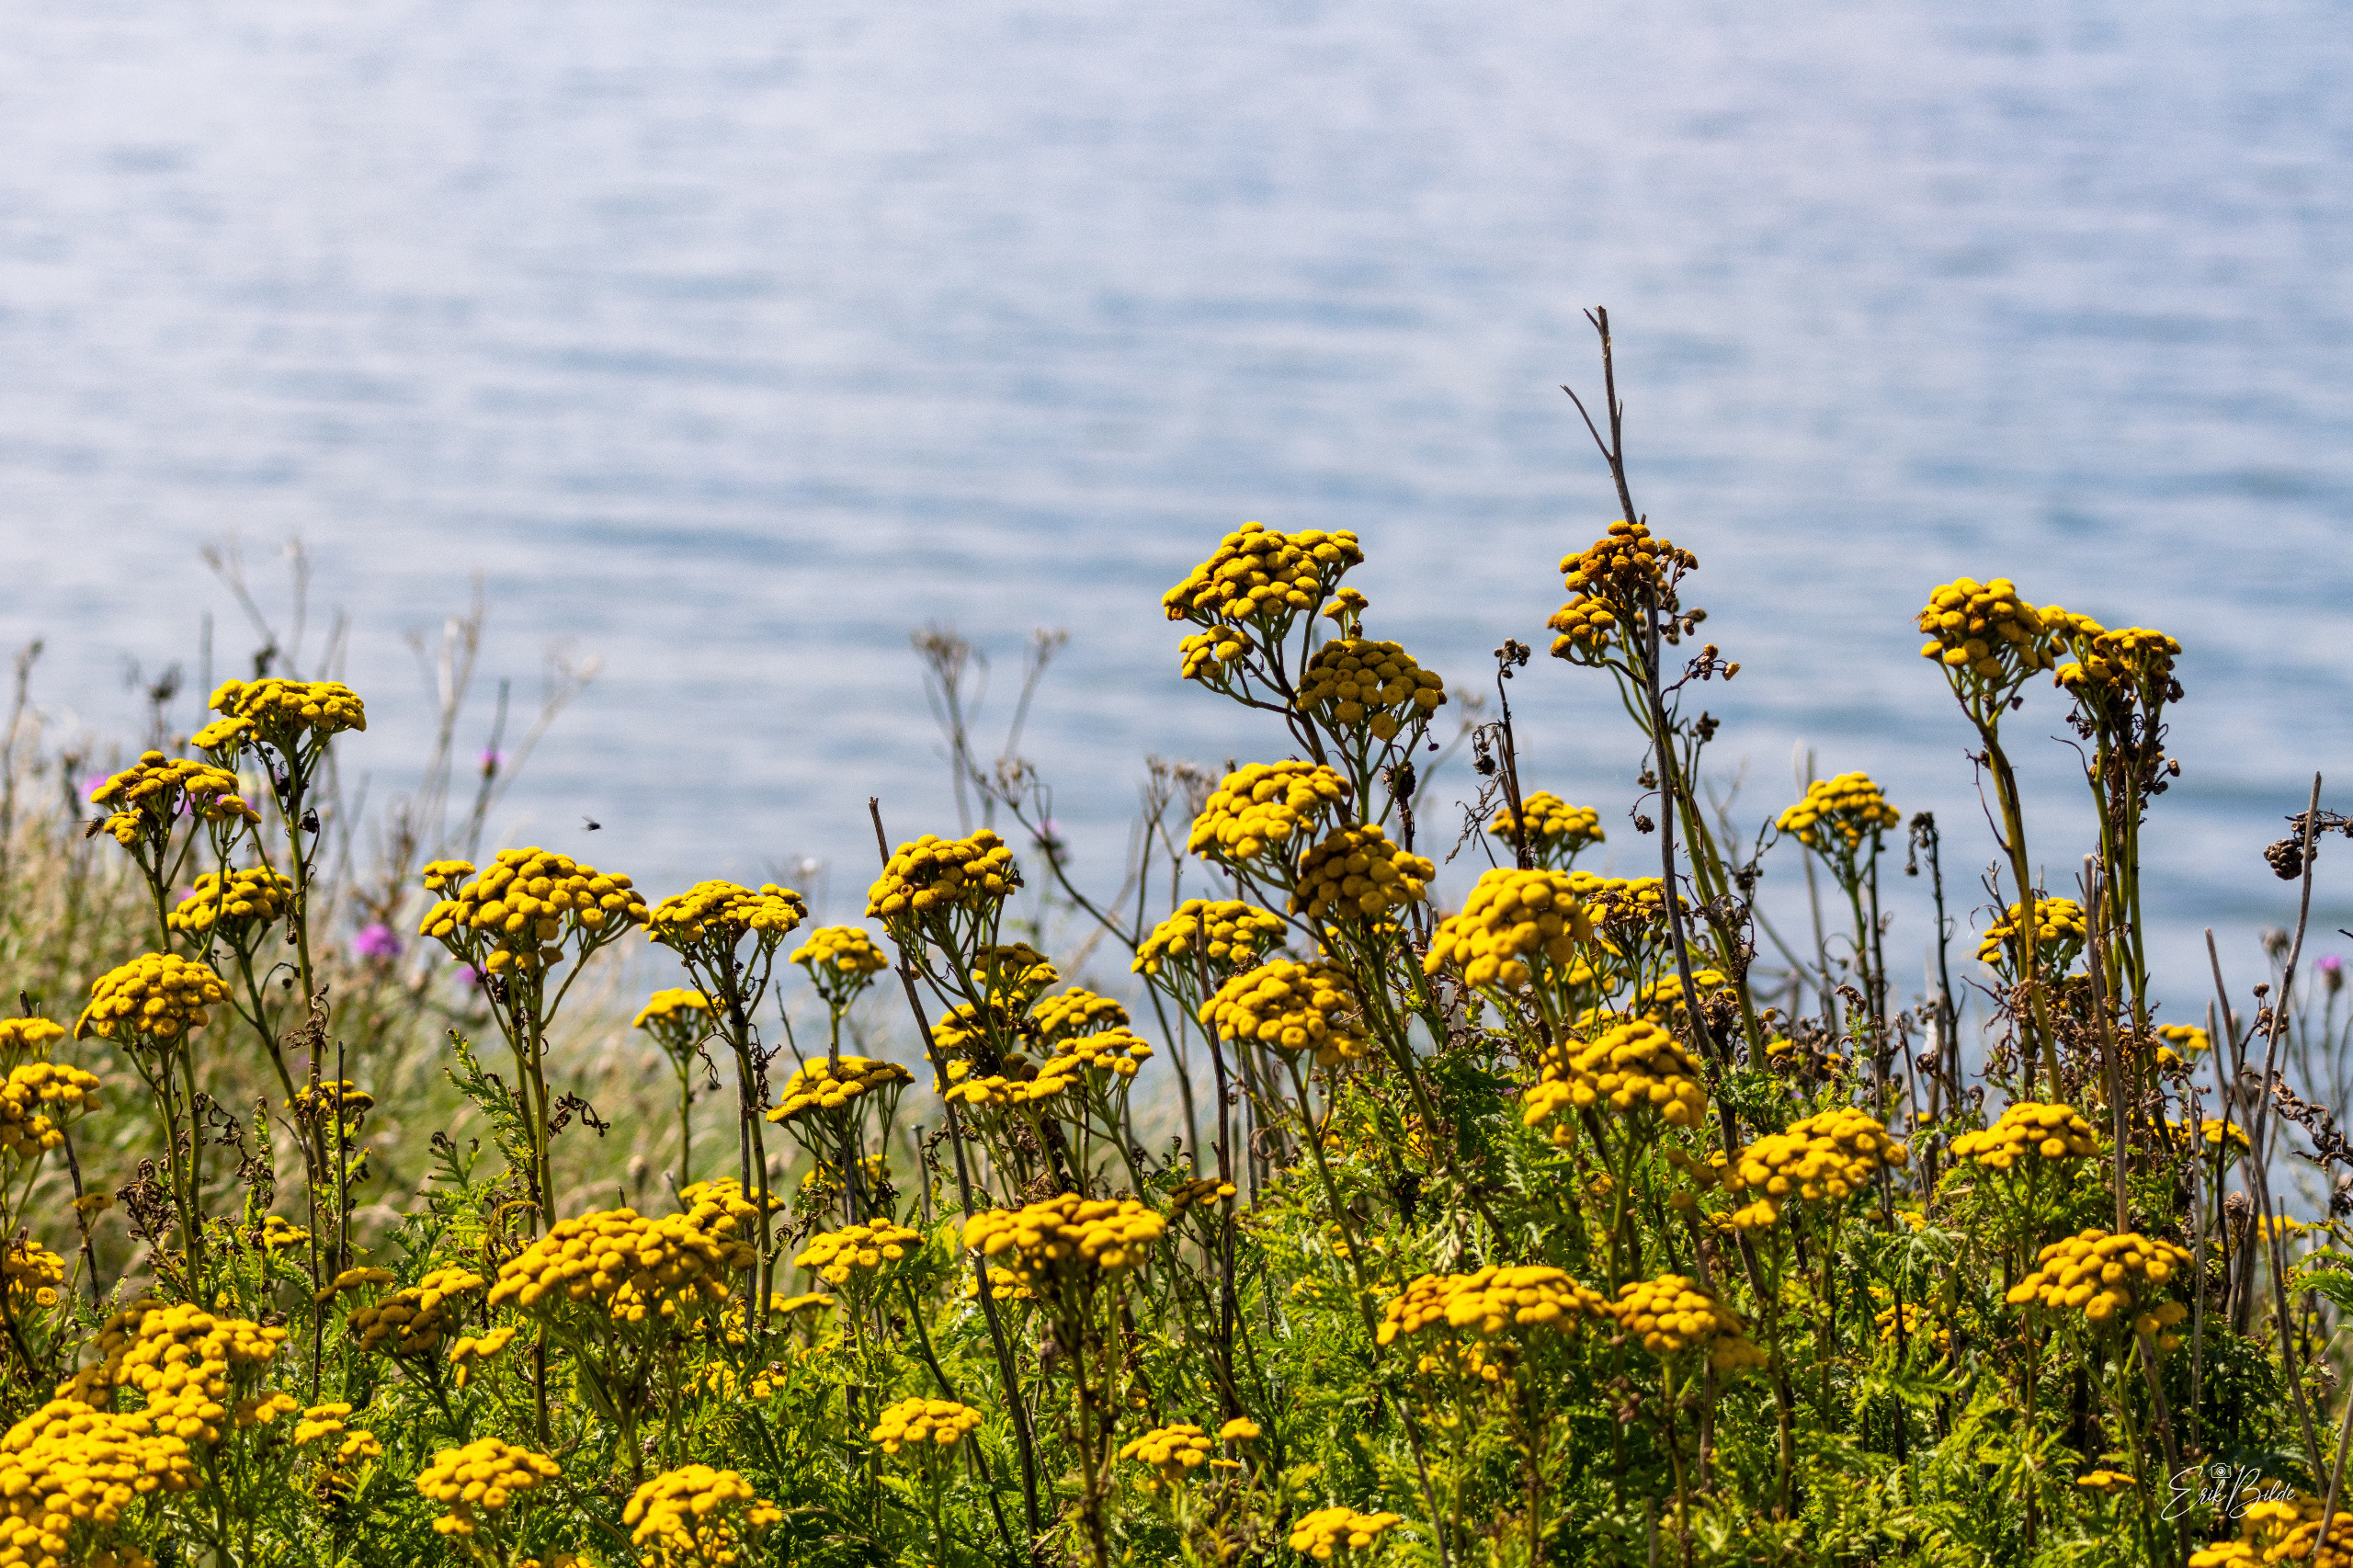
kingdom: Plantae
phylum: Tracheophyta
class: Magnoliopsida
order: Asterales
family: Asteraceae
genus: Tanacetum
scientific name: Tanacetum vulgare
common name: Rejnfan
